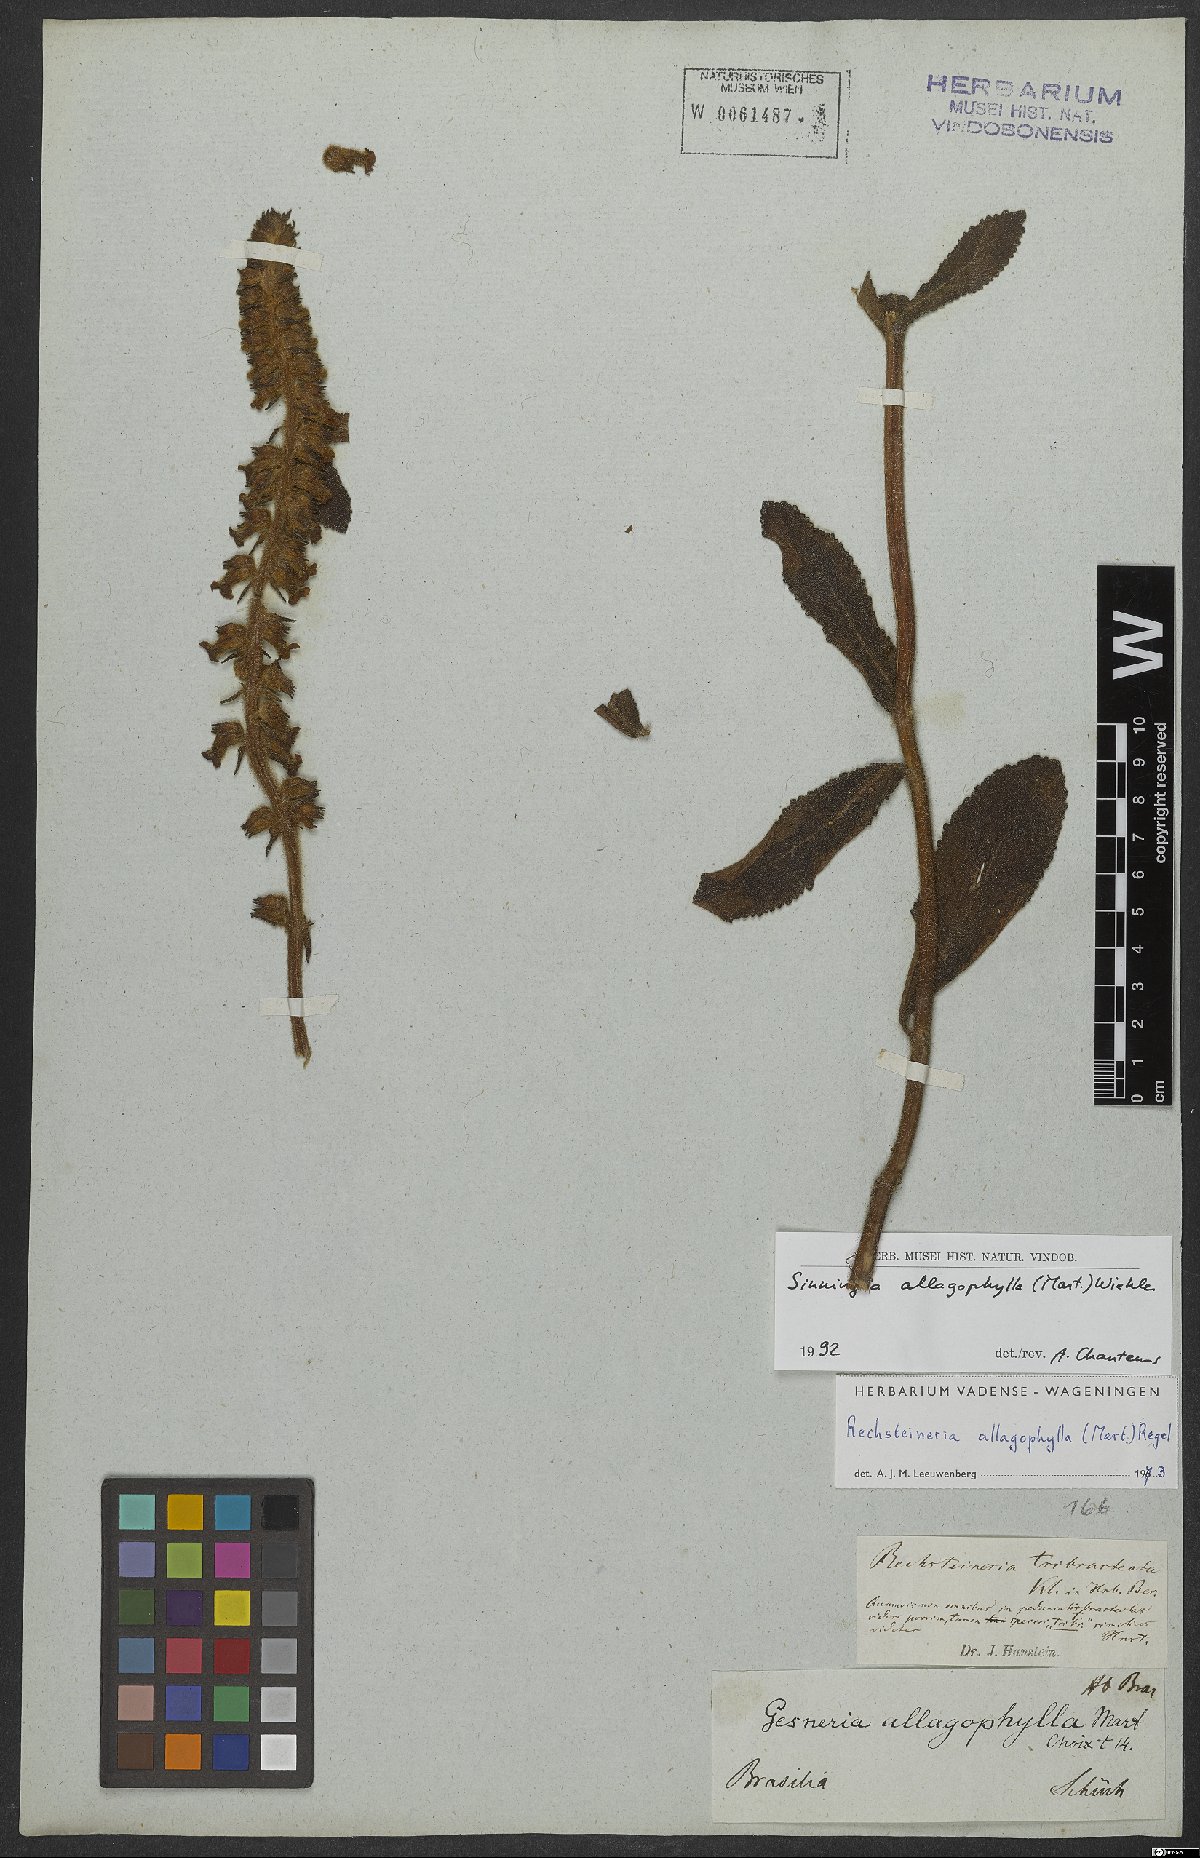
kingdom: Plantae
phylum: Tracheophyta
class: Magnoliopsida
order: Lamiales
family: Gesneriaceae
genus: Sinningia
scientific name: Sinningia allagophylla
